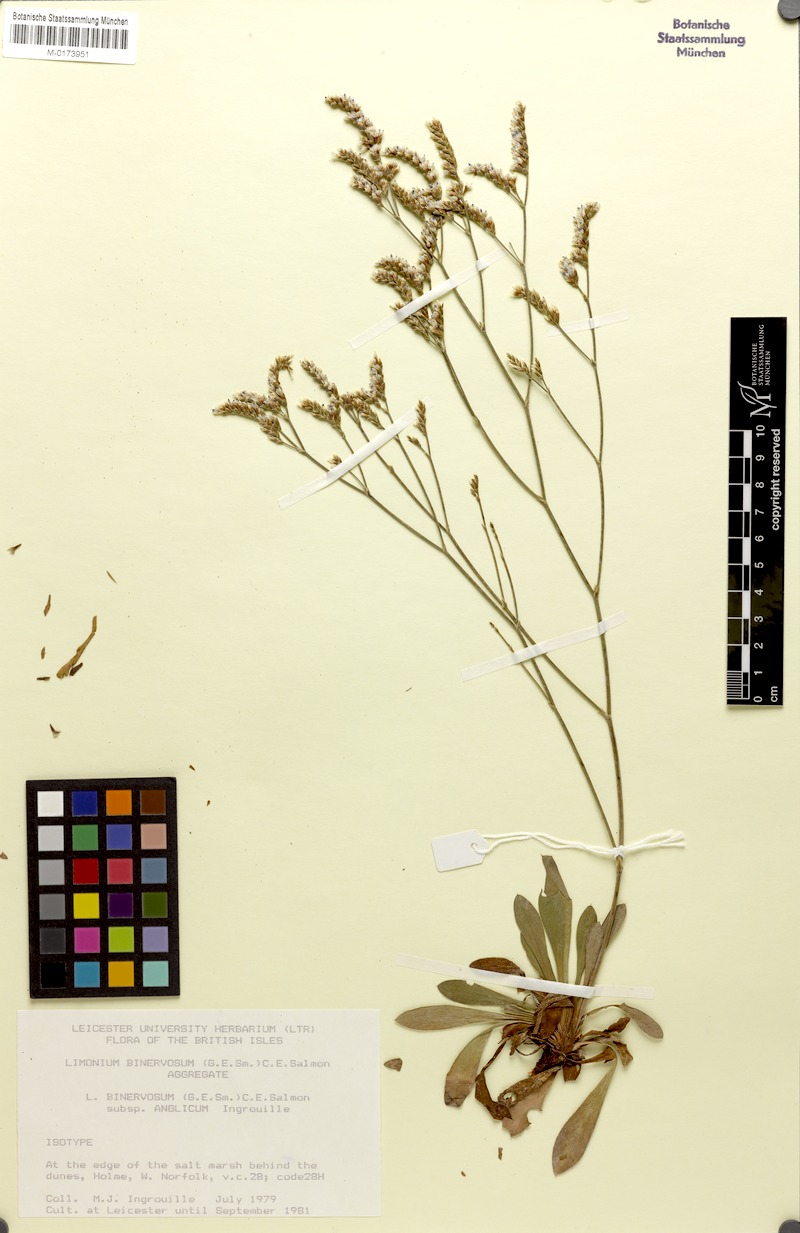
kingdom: Plantae
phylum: Tracheophyta
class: Magnoliopsida
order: Caryophyllales
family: Plumbaginaceae
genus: Limonium
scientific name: Limonium binervosum
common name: Rock sea-lavender
